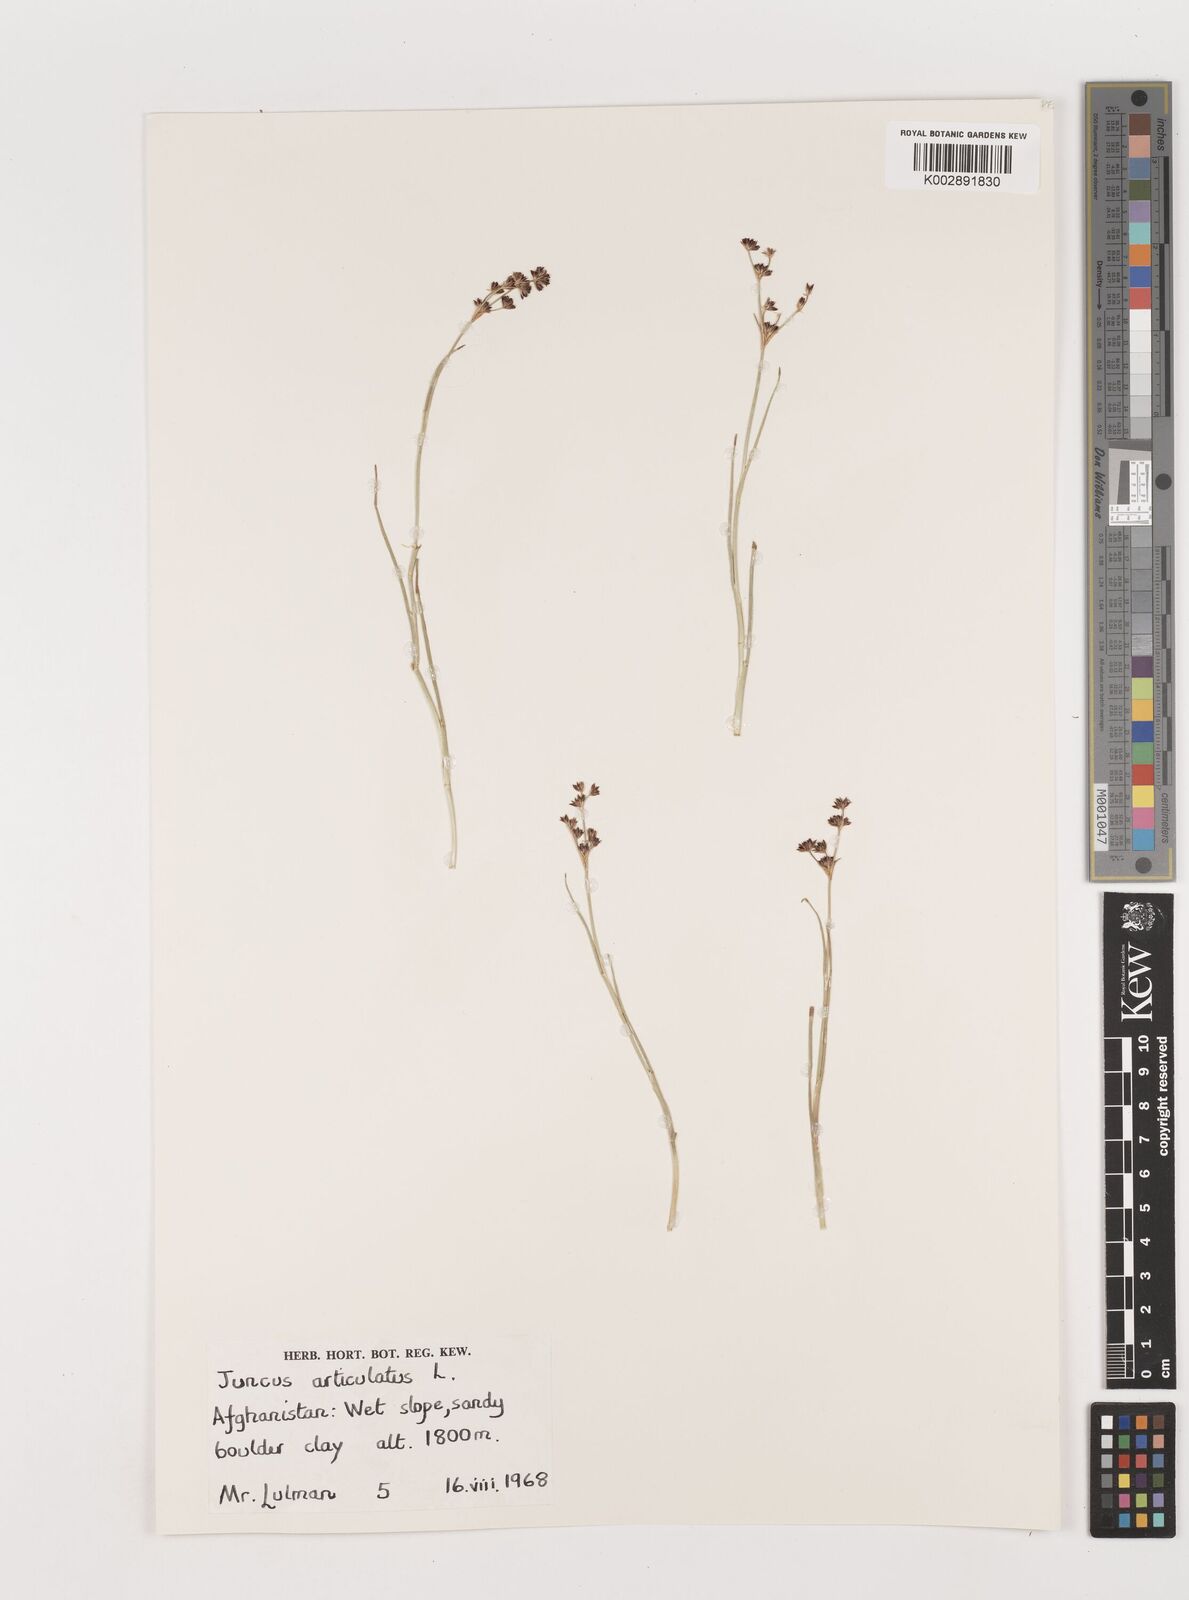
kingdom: Plantae
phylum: Tracheophyta
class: Liliopsida
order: Poales
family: Juncaceae
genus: Juncus
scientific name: Juncus articulatus
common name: Jointed rush
